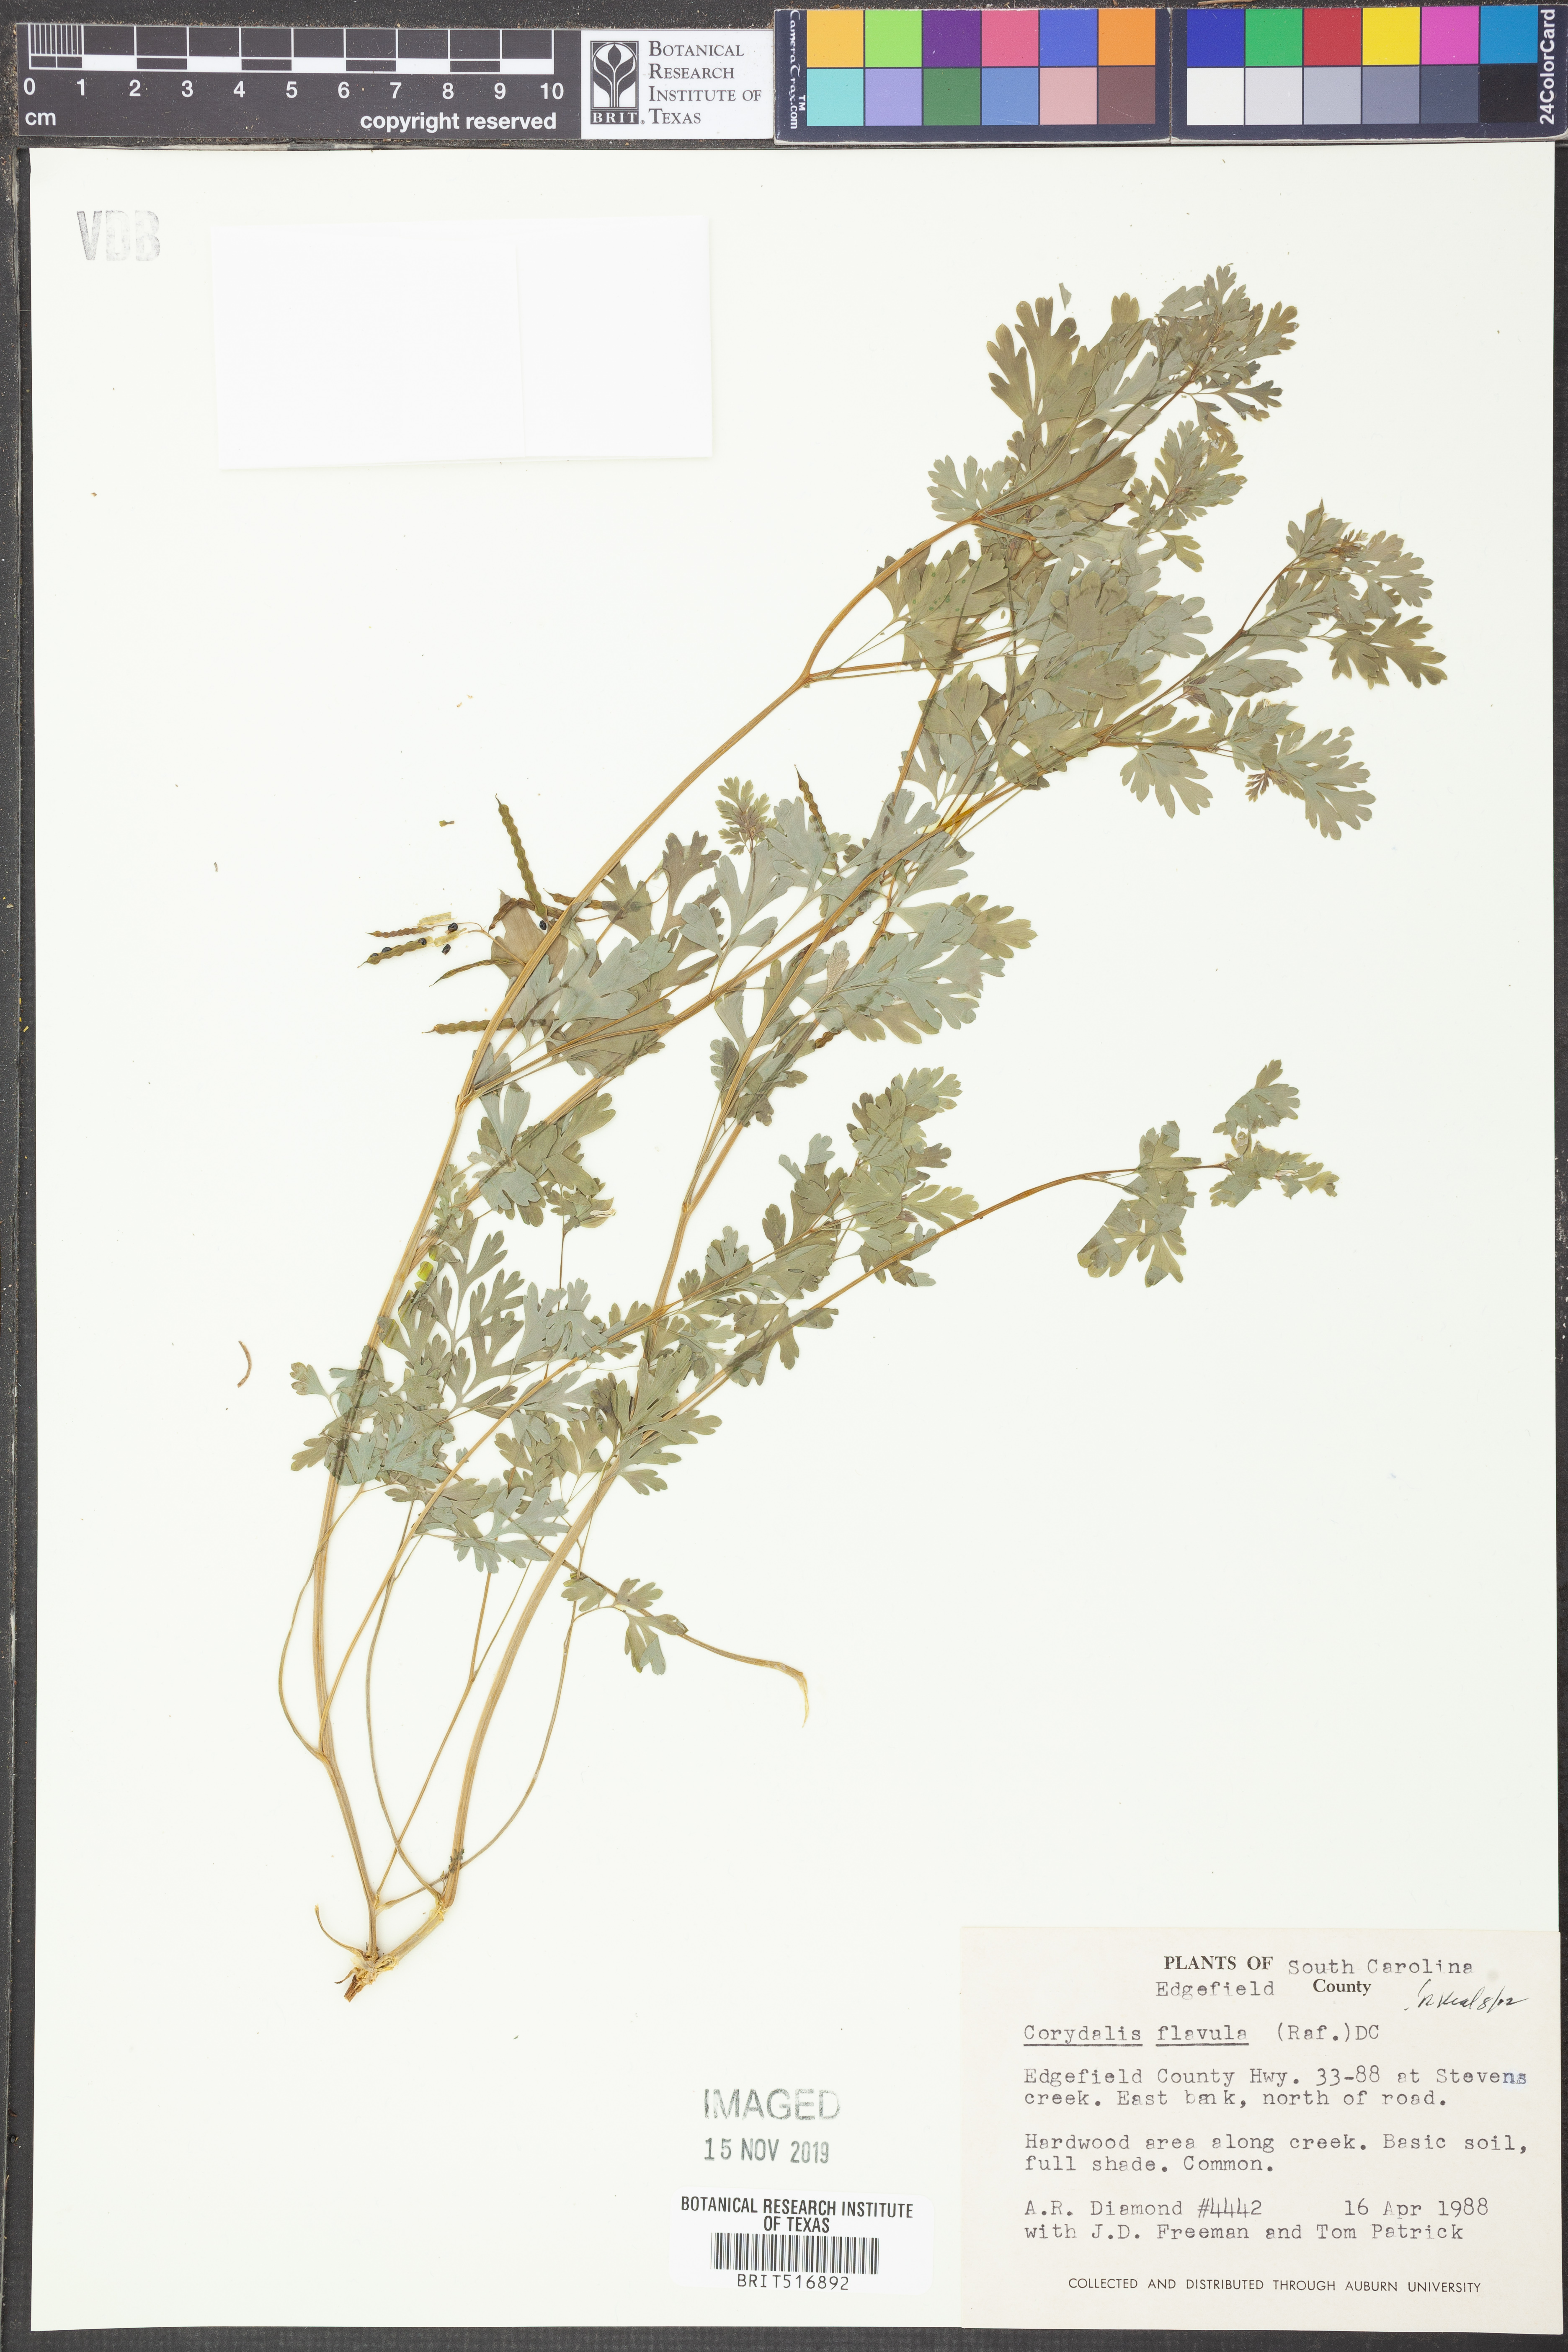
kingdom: Plantae
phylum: Tracheophyta
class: Magnoliopsida
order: Ranunculales
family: Papaveraceae
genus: Corydalis
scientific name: Corydalis flavula
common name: Yellow corydalis
